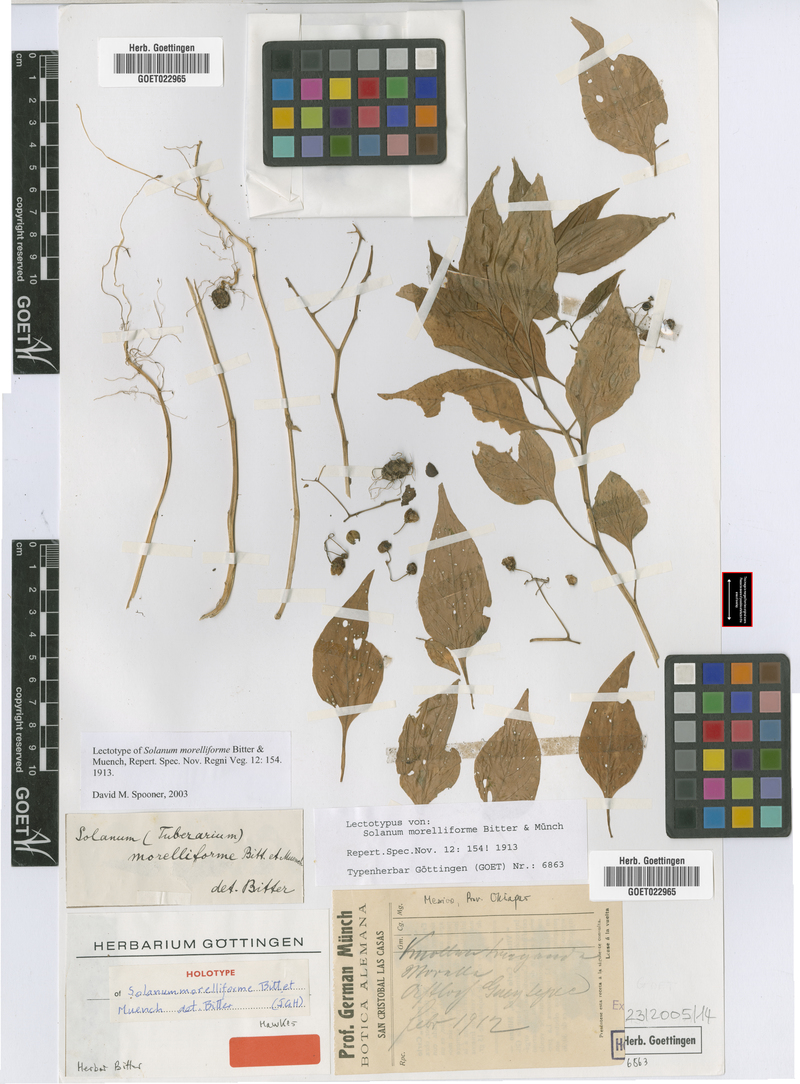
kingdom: Plantae
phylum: Tracheophyta
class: Magnoliopsida
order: Solanales
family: Solanaceae
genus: Solanum
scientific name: Solanum morelliforme
